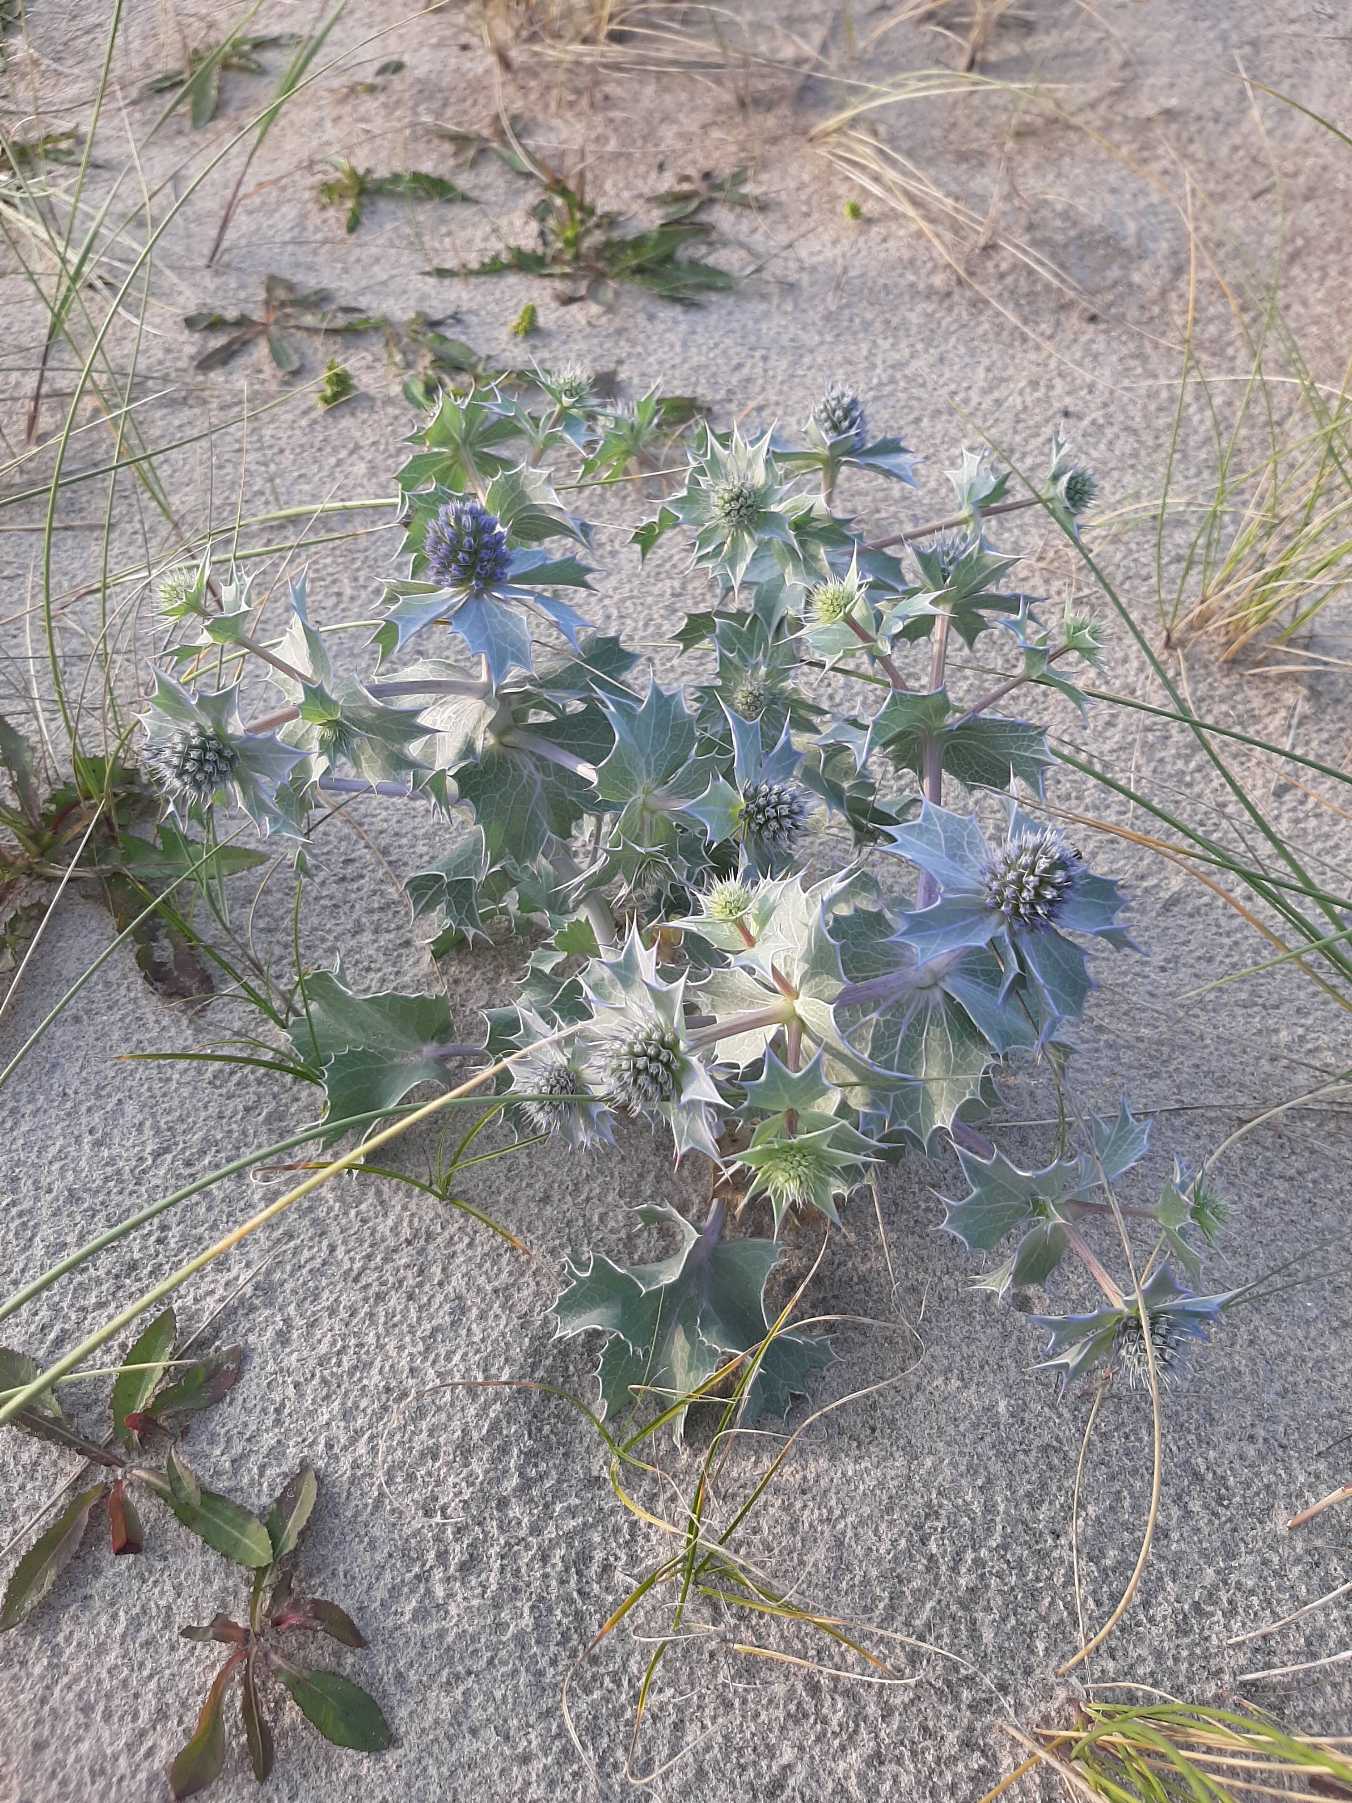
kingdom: Plantae
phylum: Tracheophyta
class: Magnoliopsida
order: Apiales
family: Apiaceae
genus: Eryngium
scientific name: Eryngium maritimum
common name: Strand-mandstro
